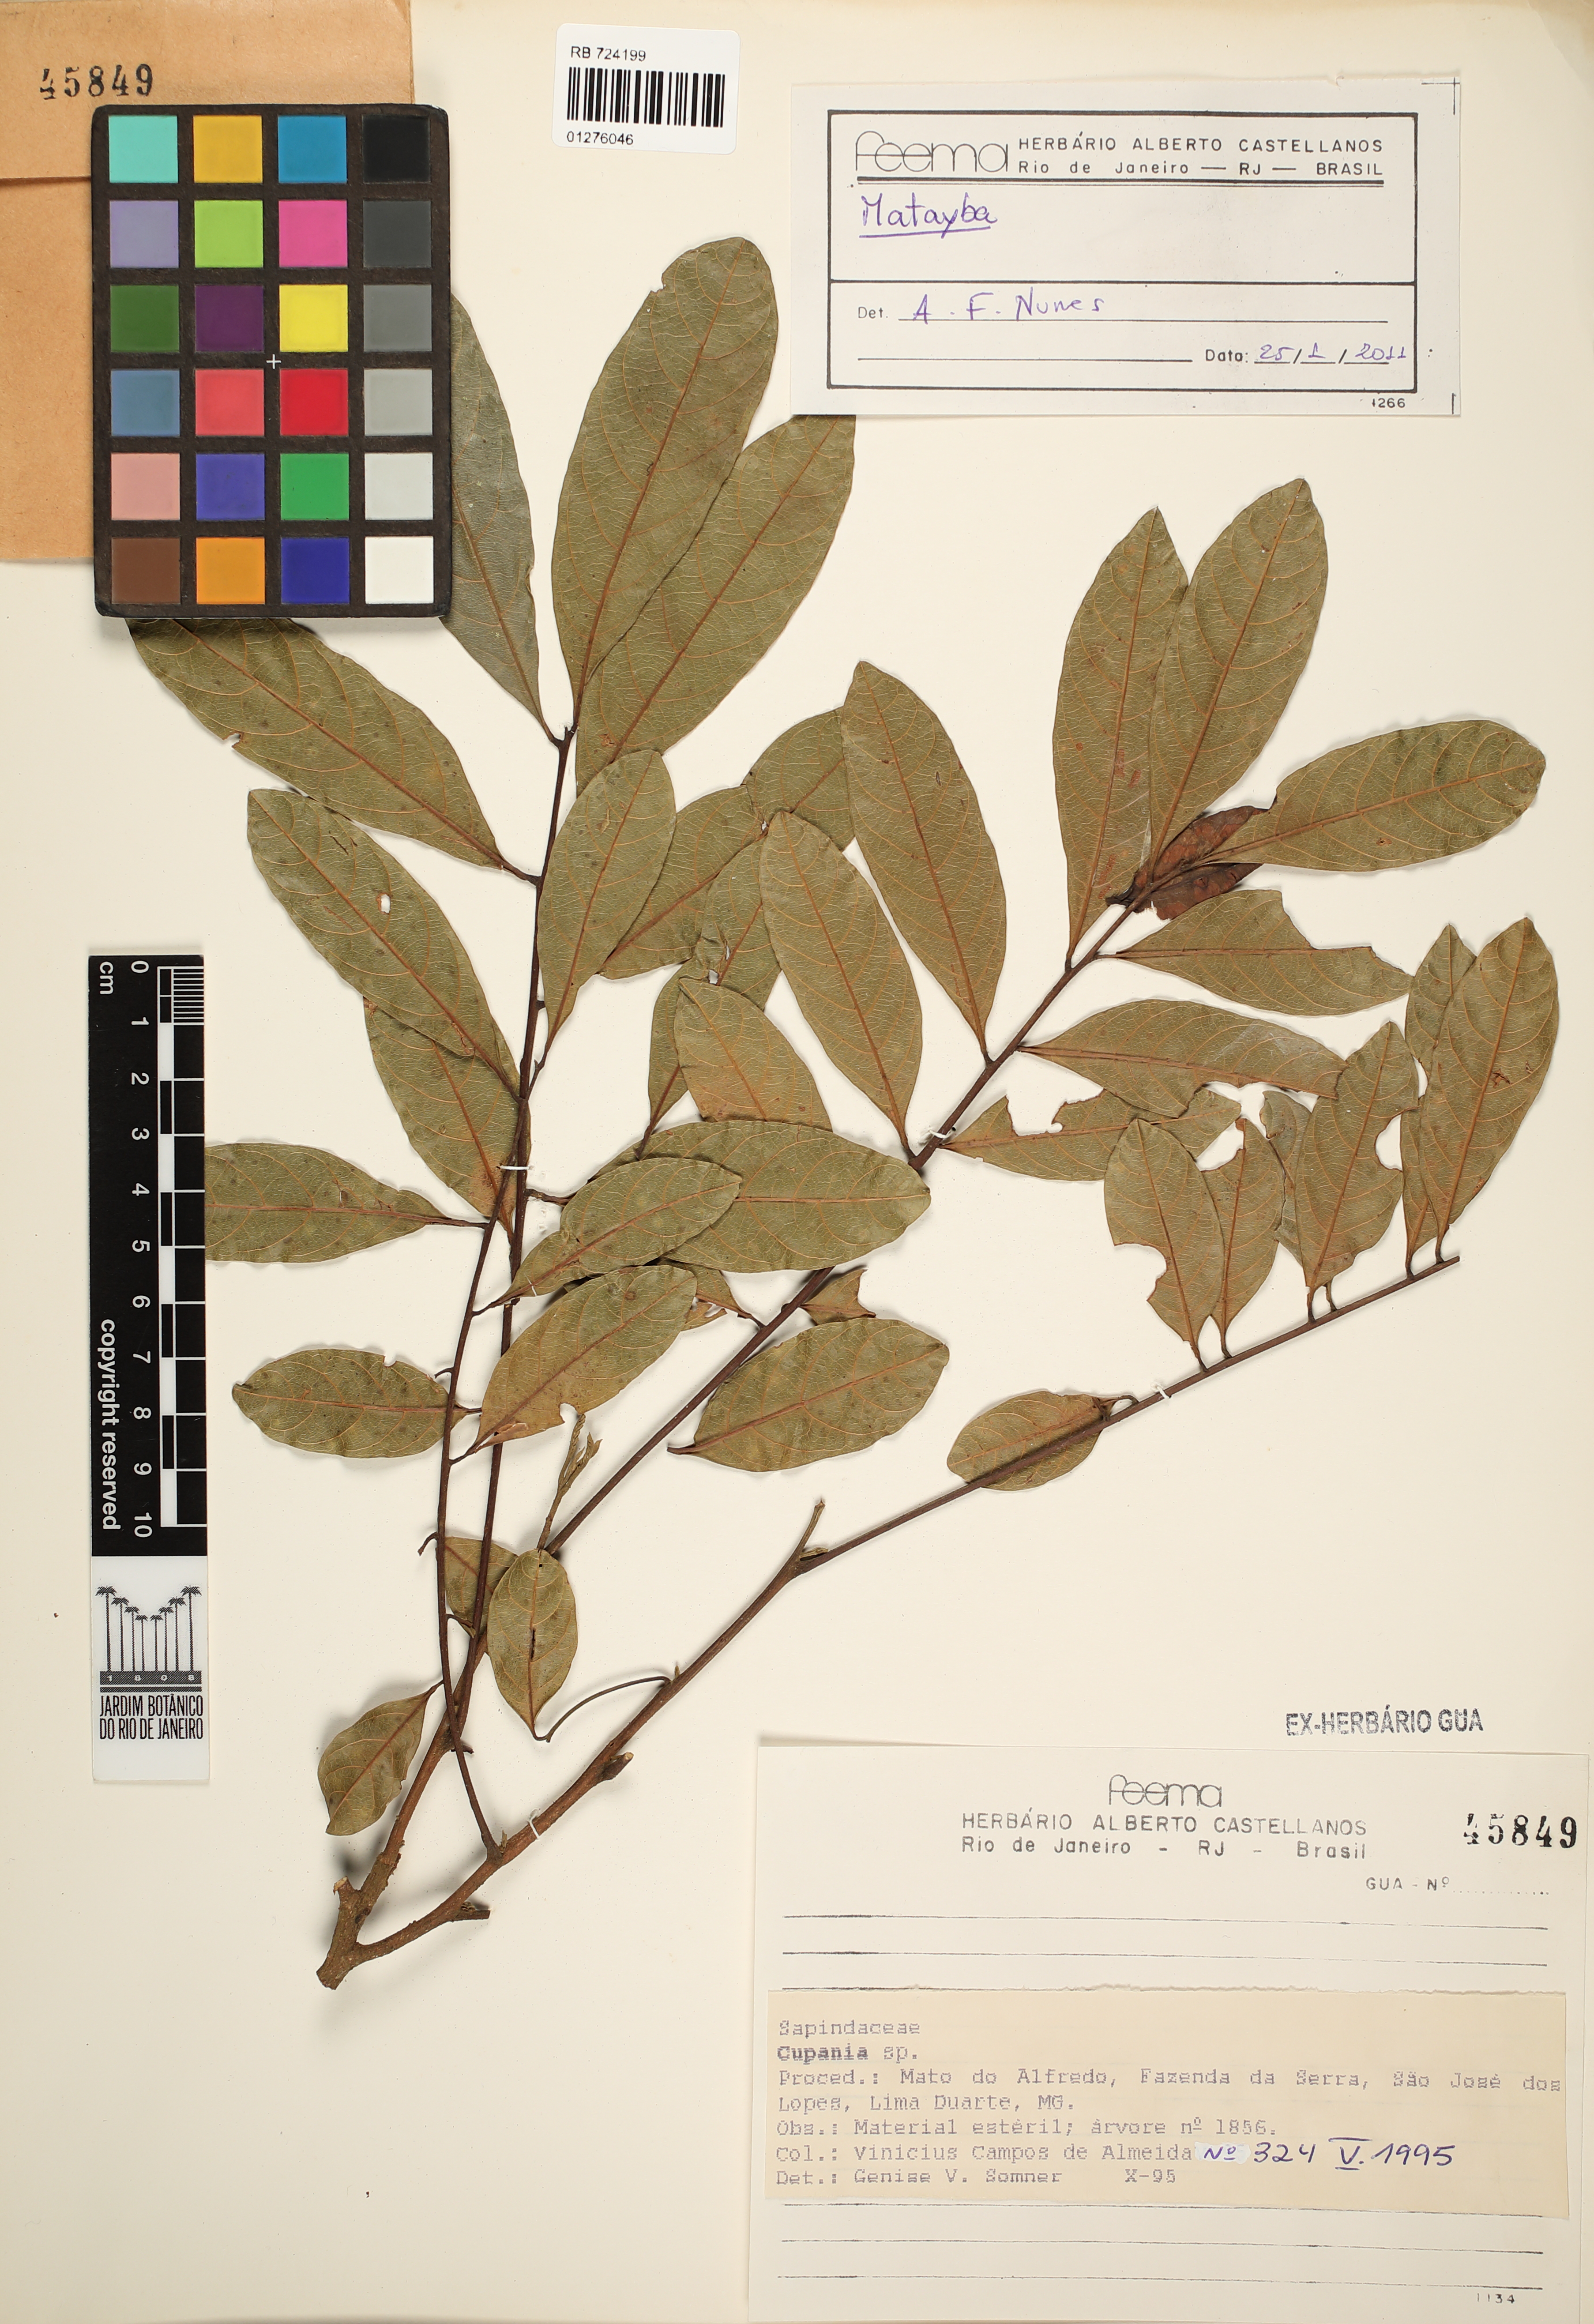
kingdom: Plantae
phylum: Tracheophyta
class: Magnoliopsida
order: Sapindales
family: Sapindaceae
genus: Matayba
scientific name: Matayba
